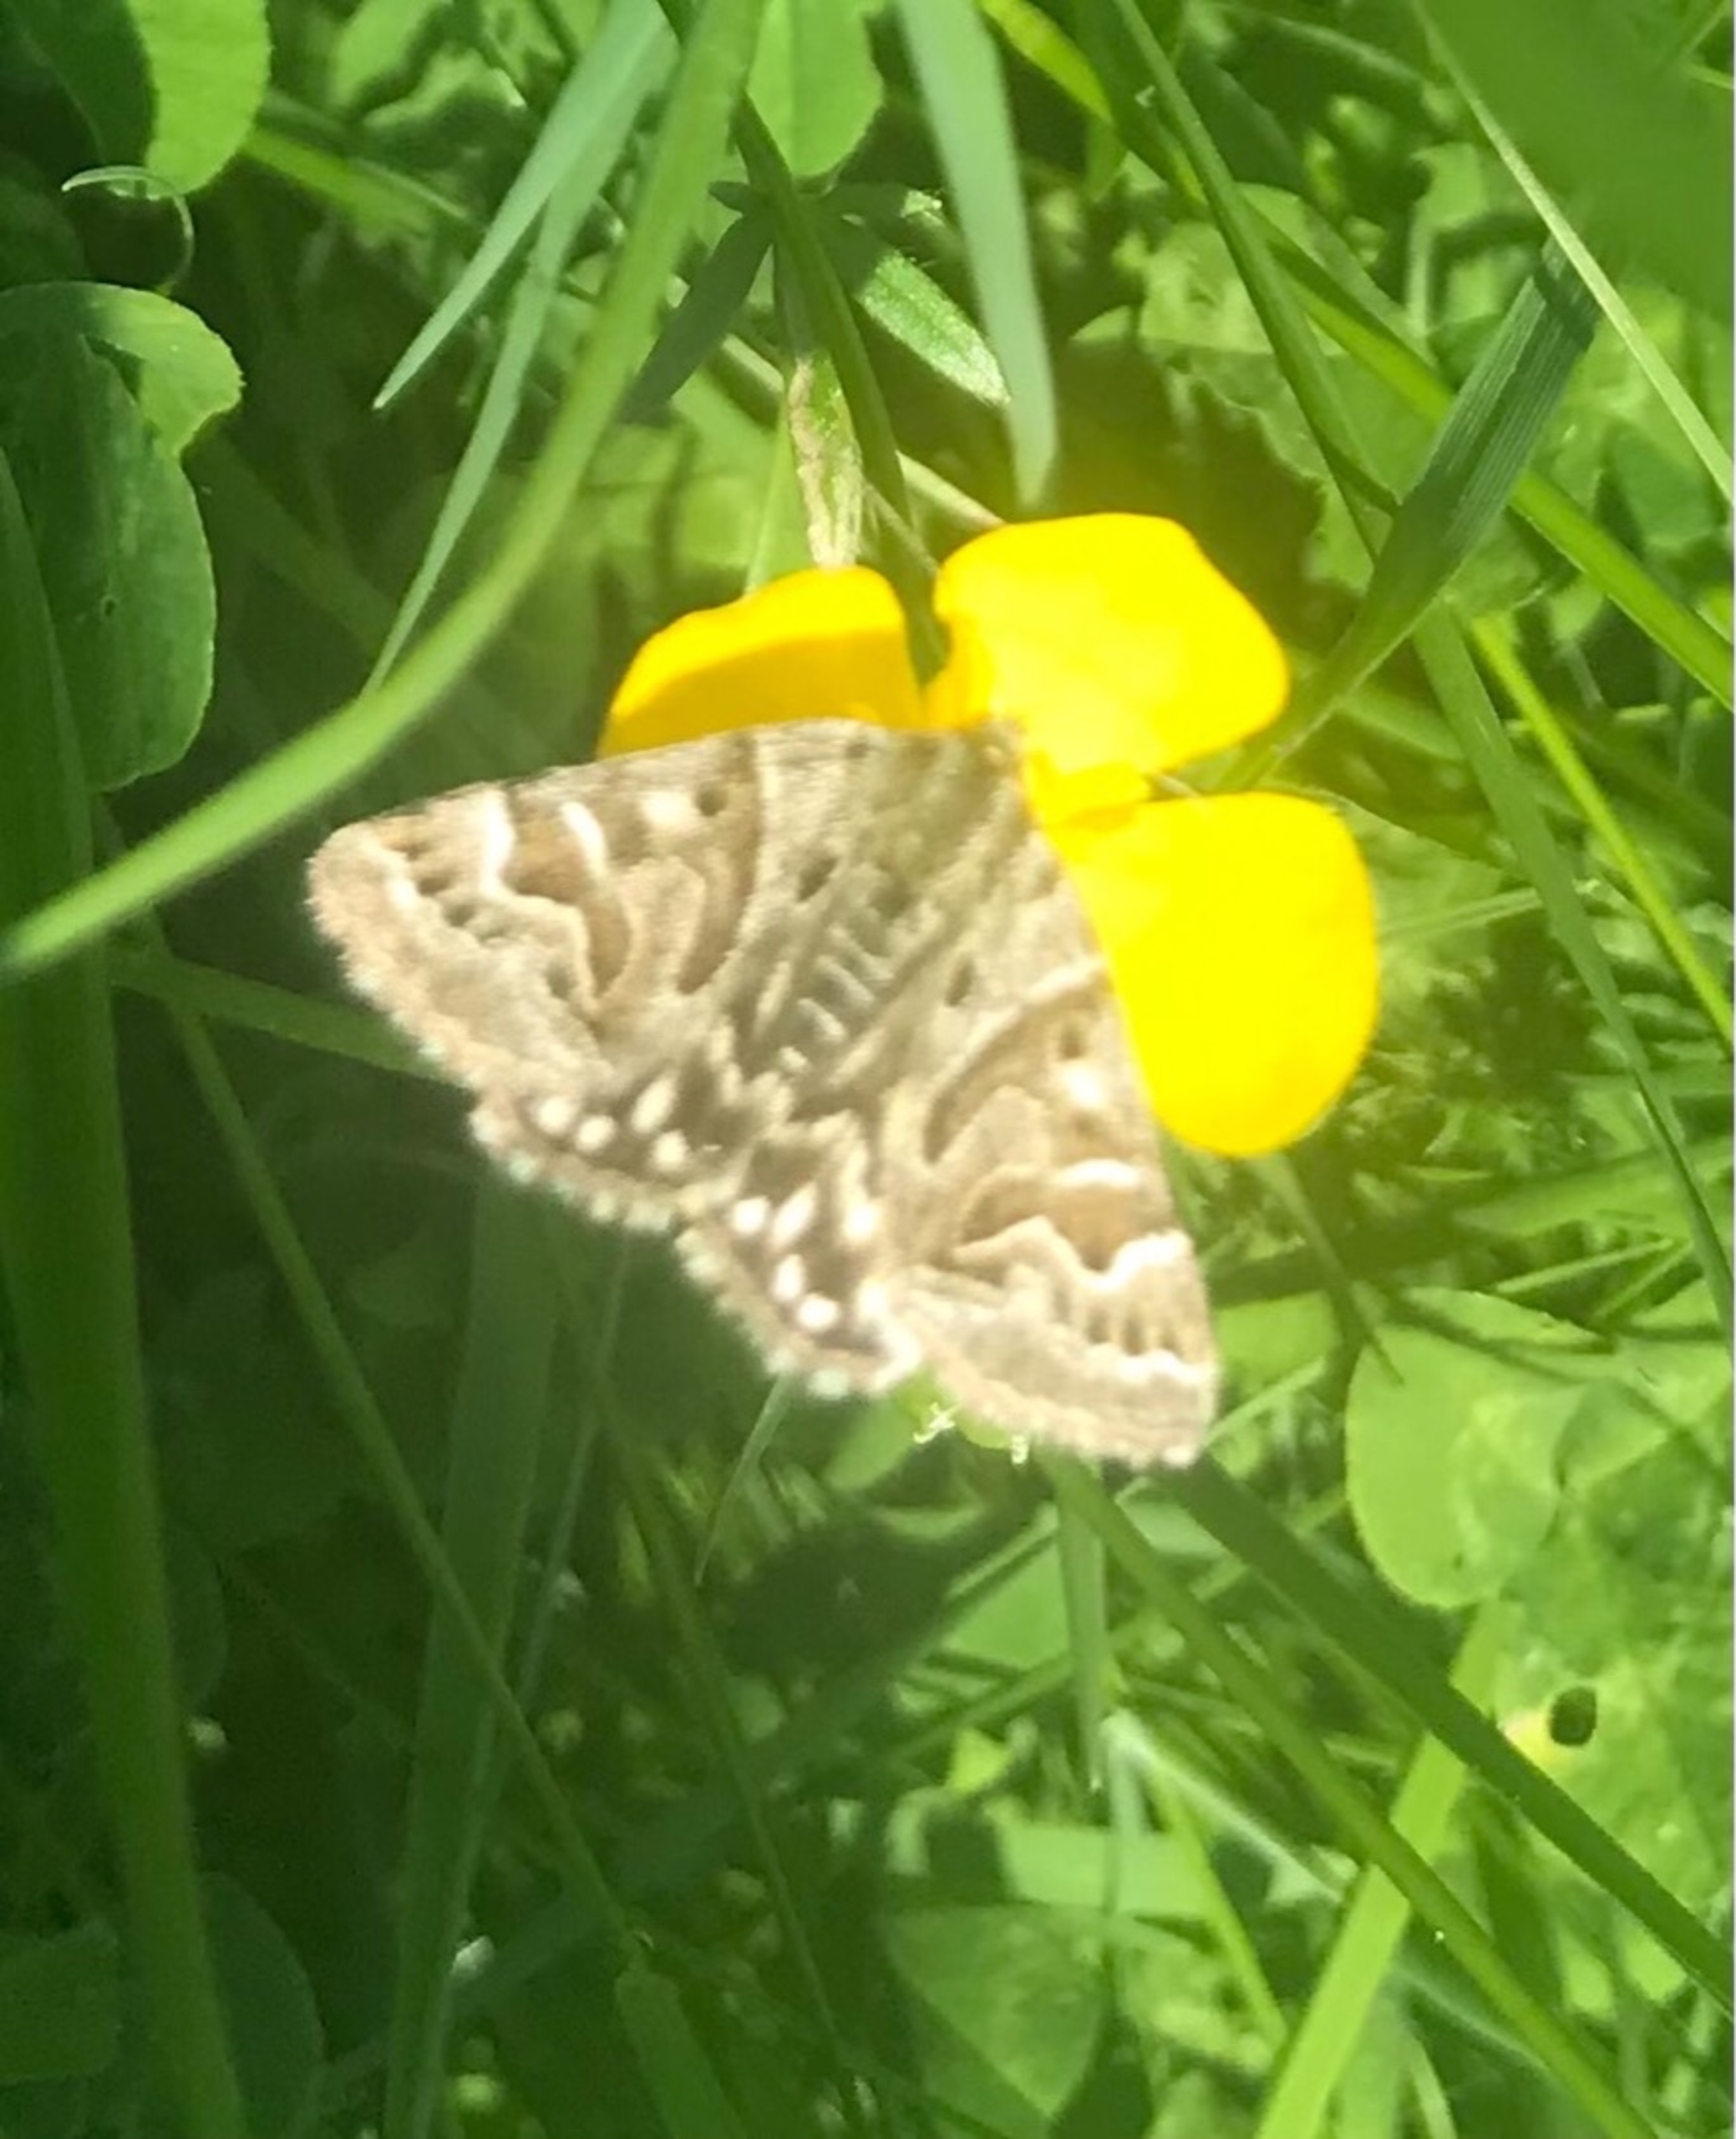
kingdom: Animalia
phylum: Arthropoda
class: Insecta
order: Lepidoptera
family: Erebidae
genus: Callistege
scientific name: Callistege mi
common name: Marmoreret kløverugle
